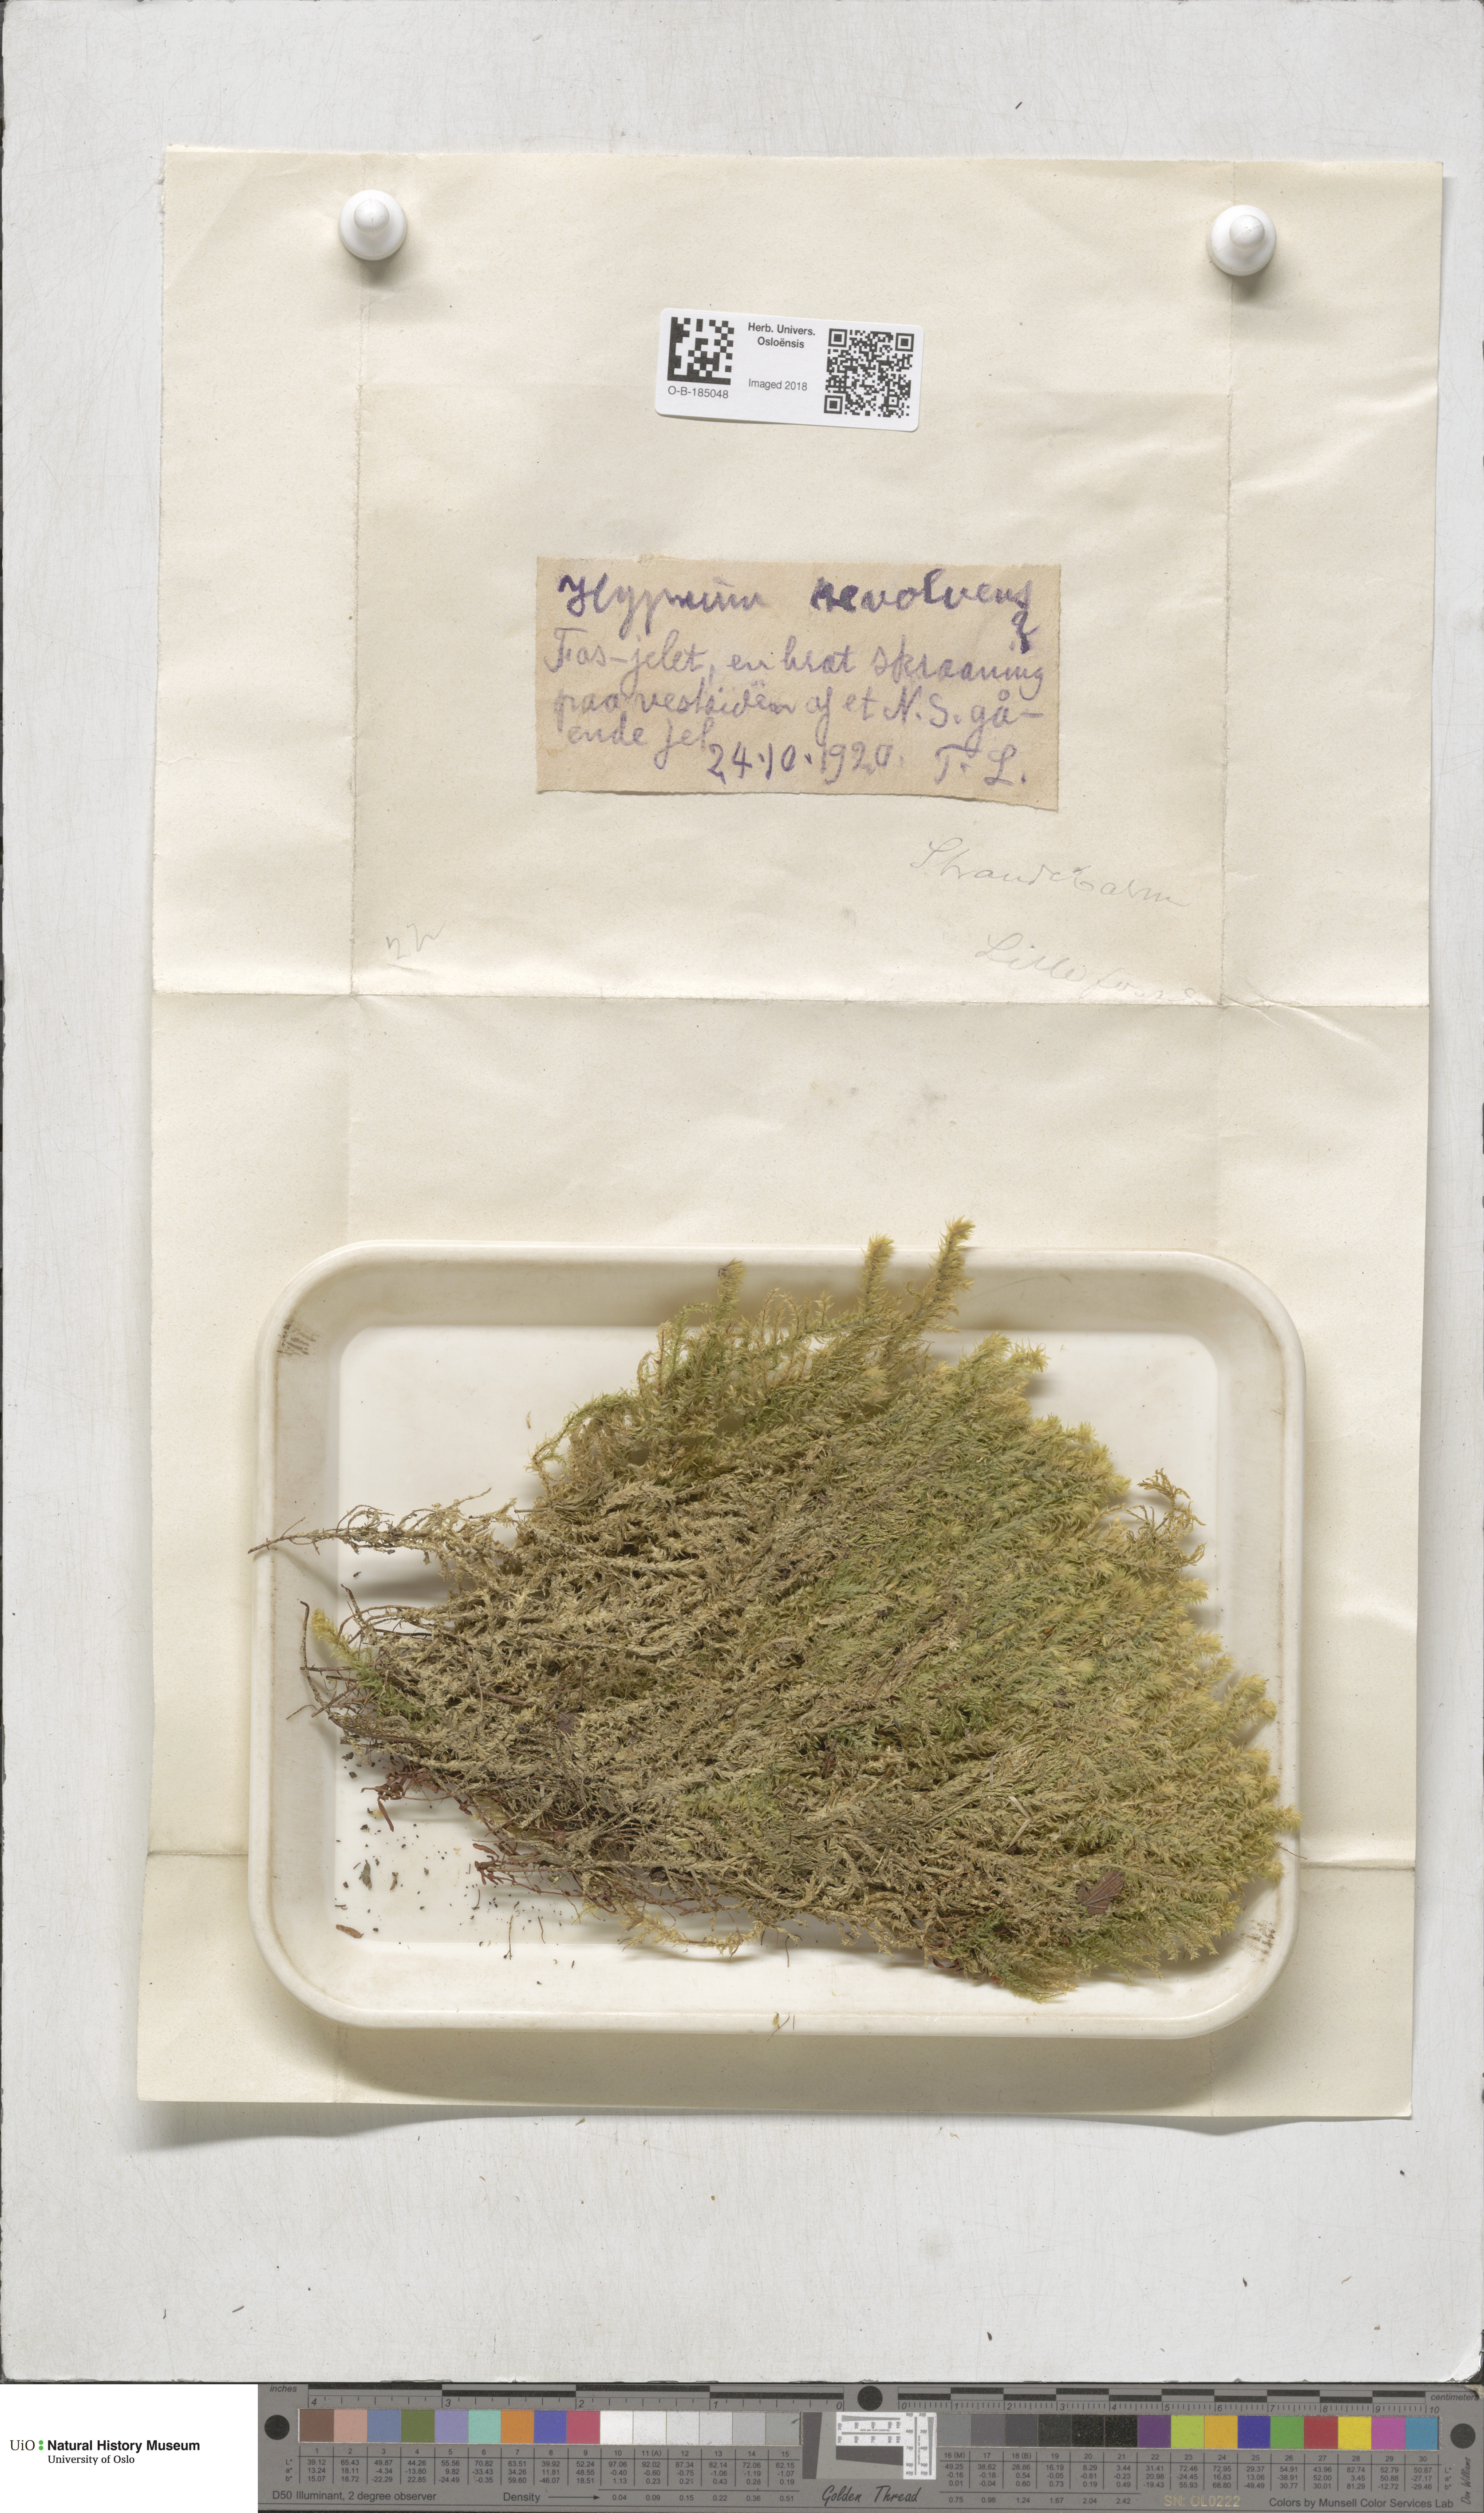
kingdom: Plantae
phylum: Bryophyta
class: Bryopsida
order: Hypnales
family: Scorpidiaceae
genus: Scorpidium
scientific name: Scorpidium revolvens
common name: Rusty hook moss
